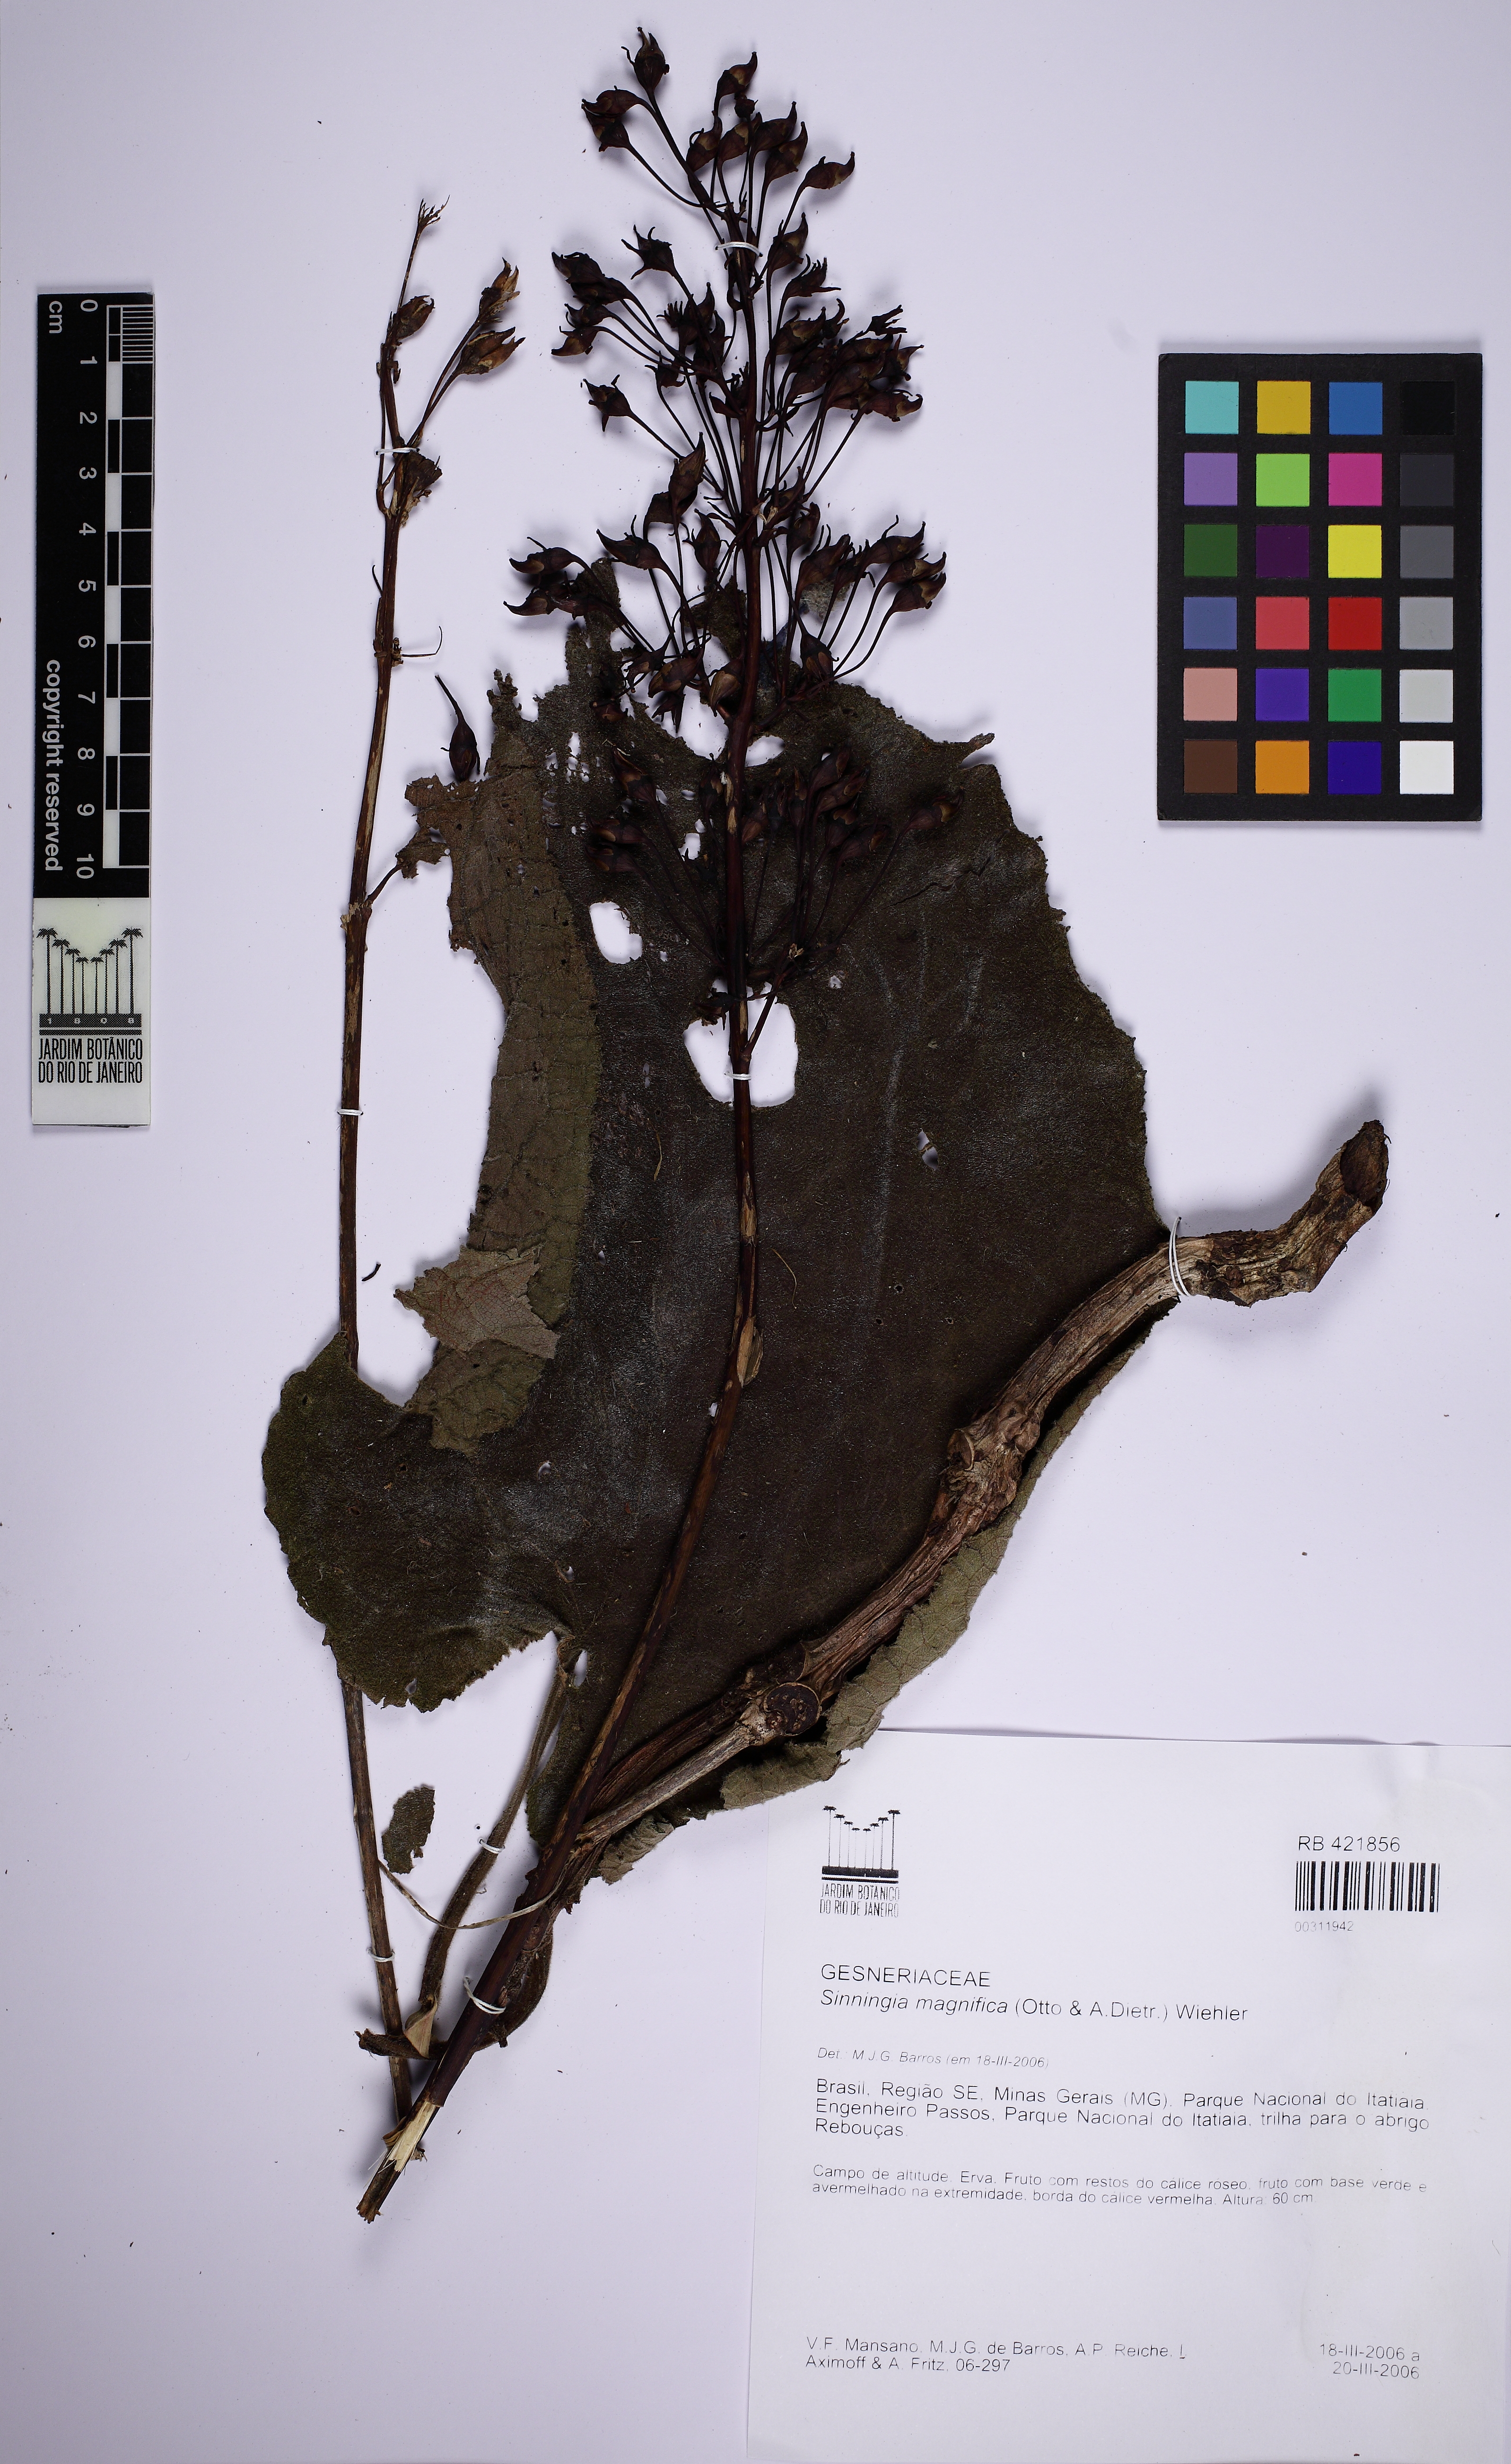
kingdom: Plantae
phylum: Tracheophyta
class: Magnoliopsida
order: Lamiales
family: Gesneriaceae
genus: Sinningia
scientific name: Sinningia gigantifolia
